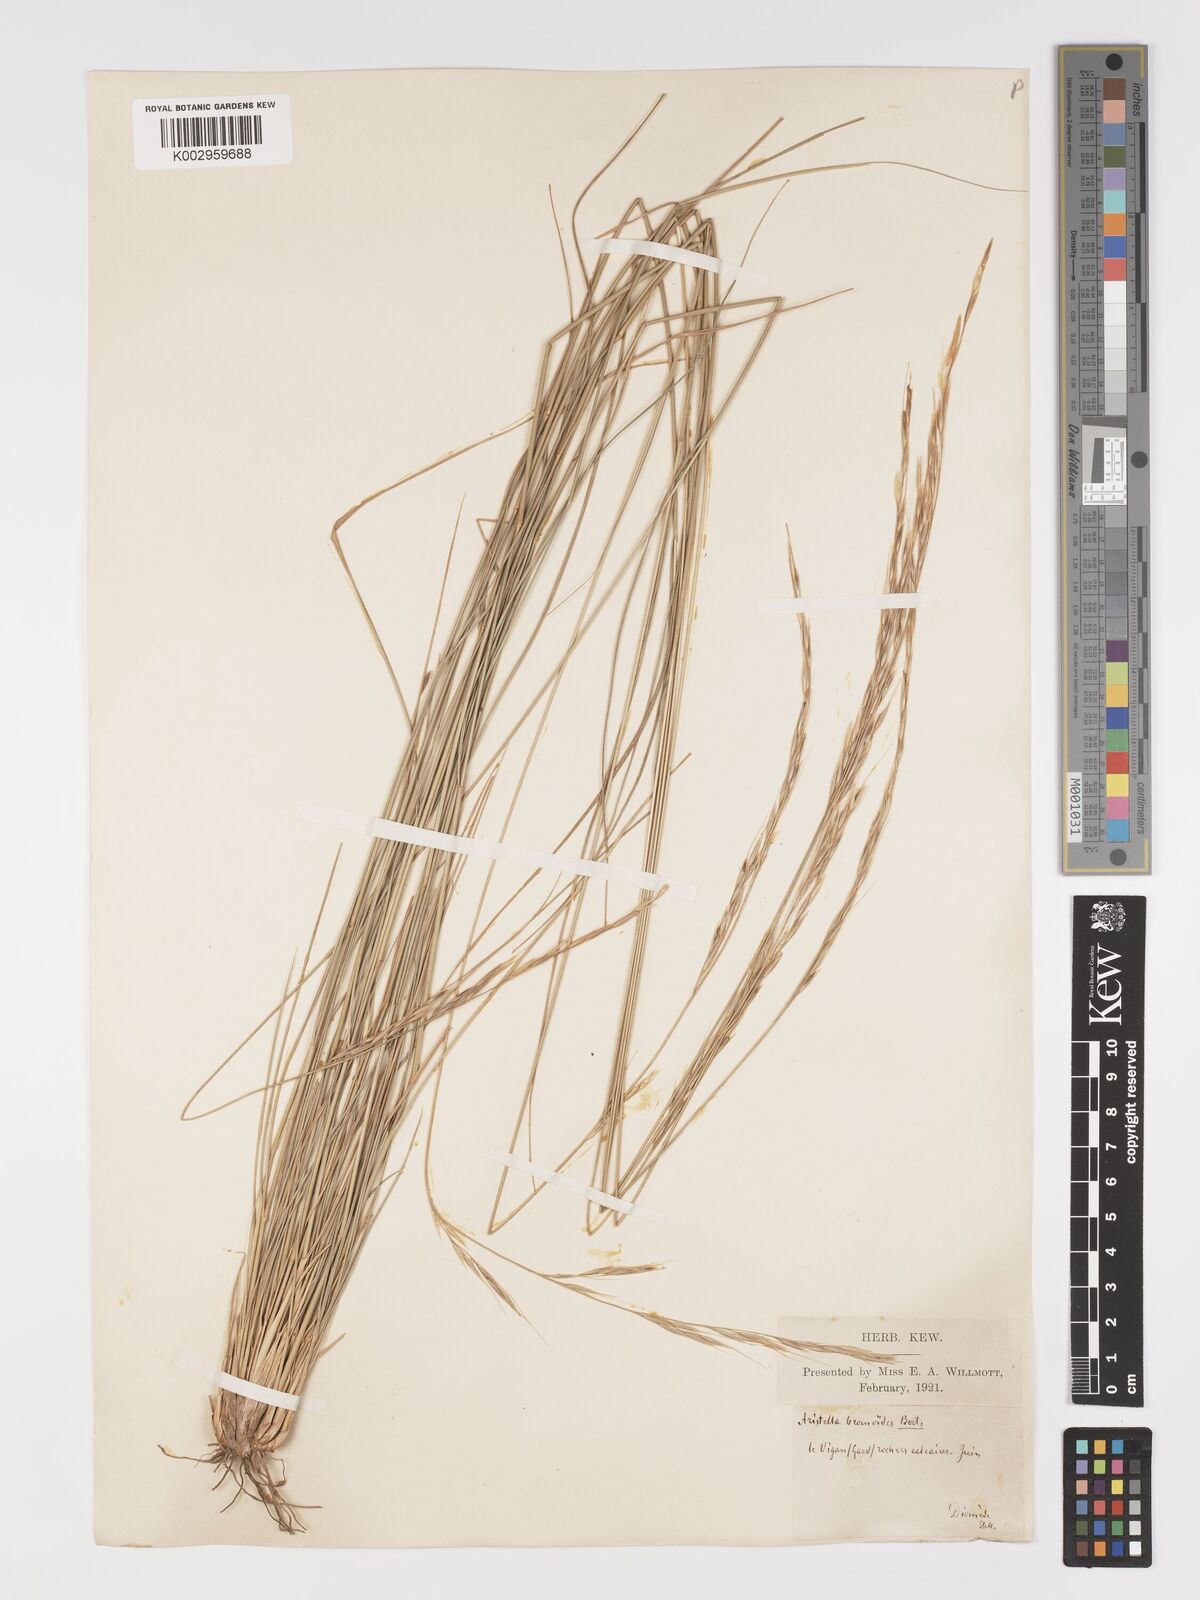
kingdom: Plantae
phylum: Tracheophyta
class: Liliopsida
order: Poales
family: Poaceae
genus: Achnatherum
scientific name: Achnatherum bromoides
